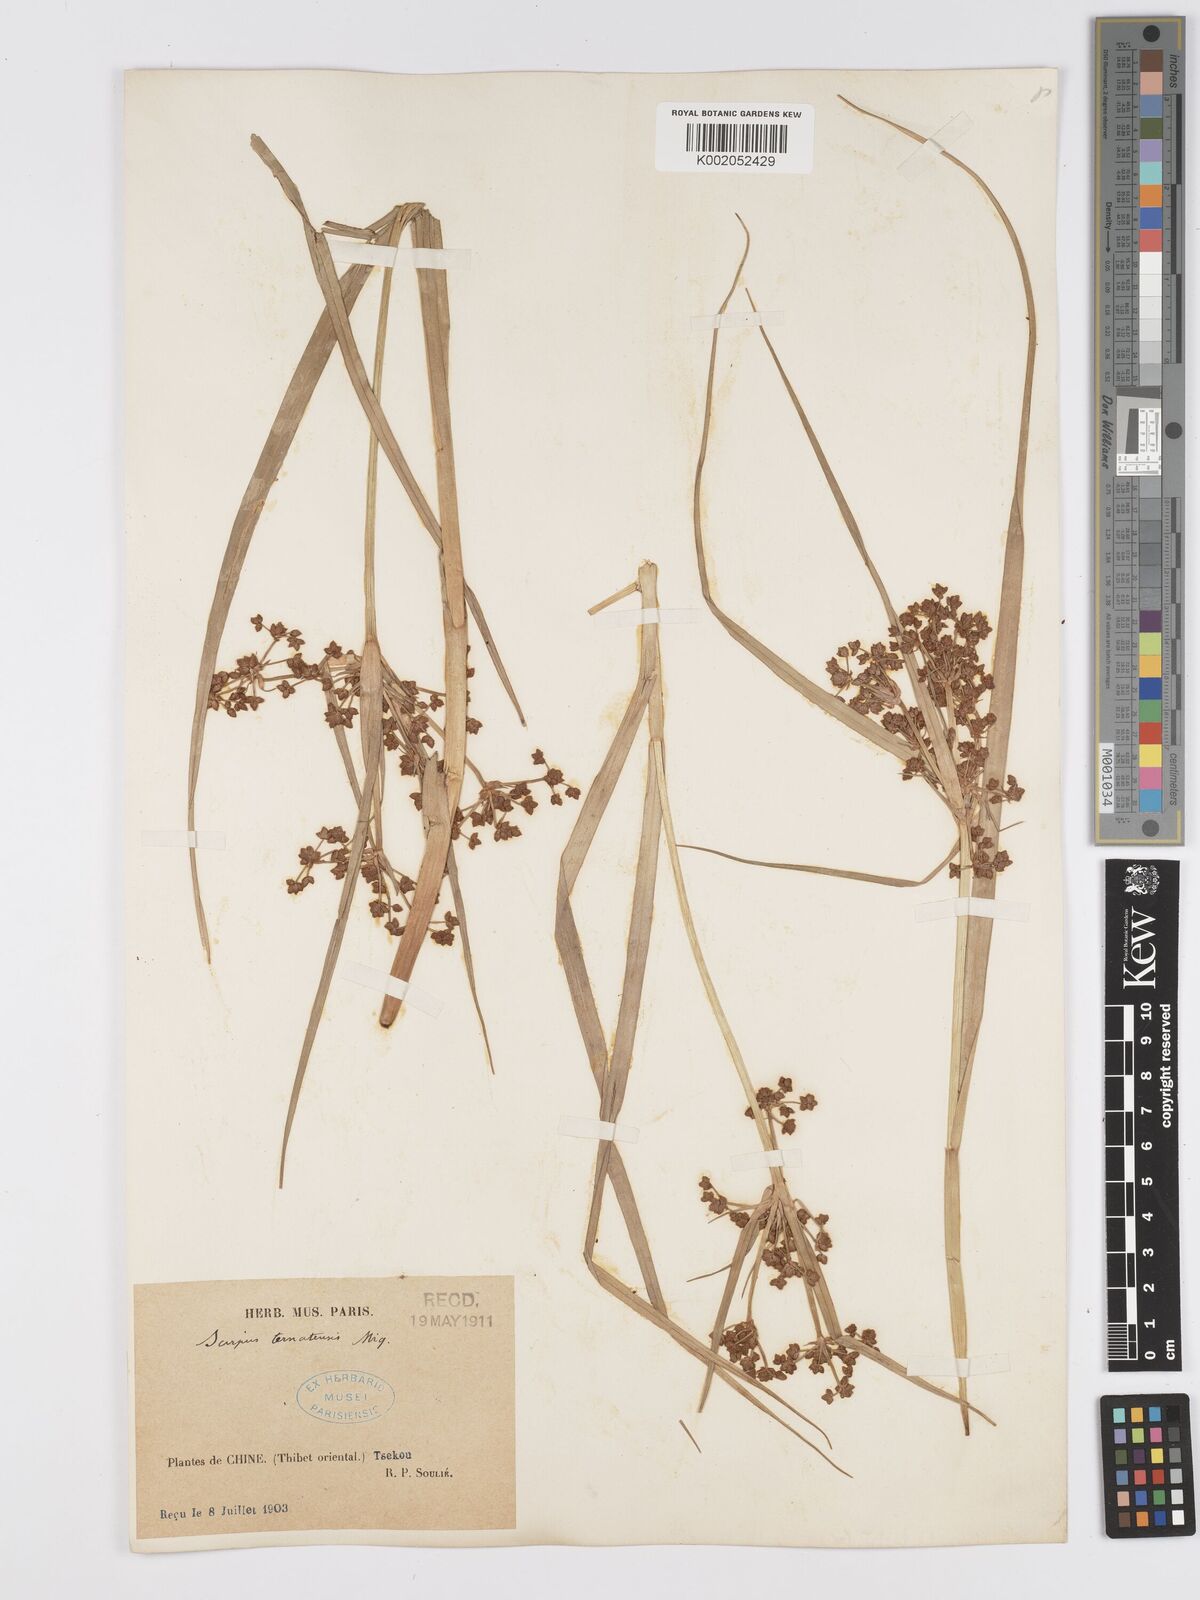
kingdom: Plantae
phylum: Tracheophyta
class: Liliopsida
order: Poales
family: Cyperaceae
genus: Scirpus
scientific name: Scirpus ternatanus
